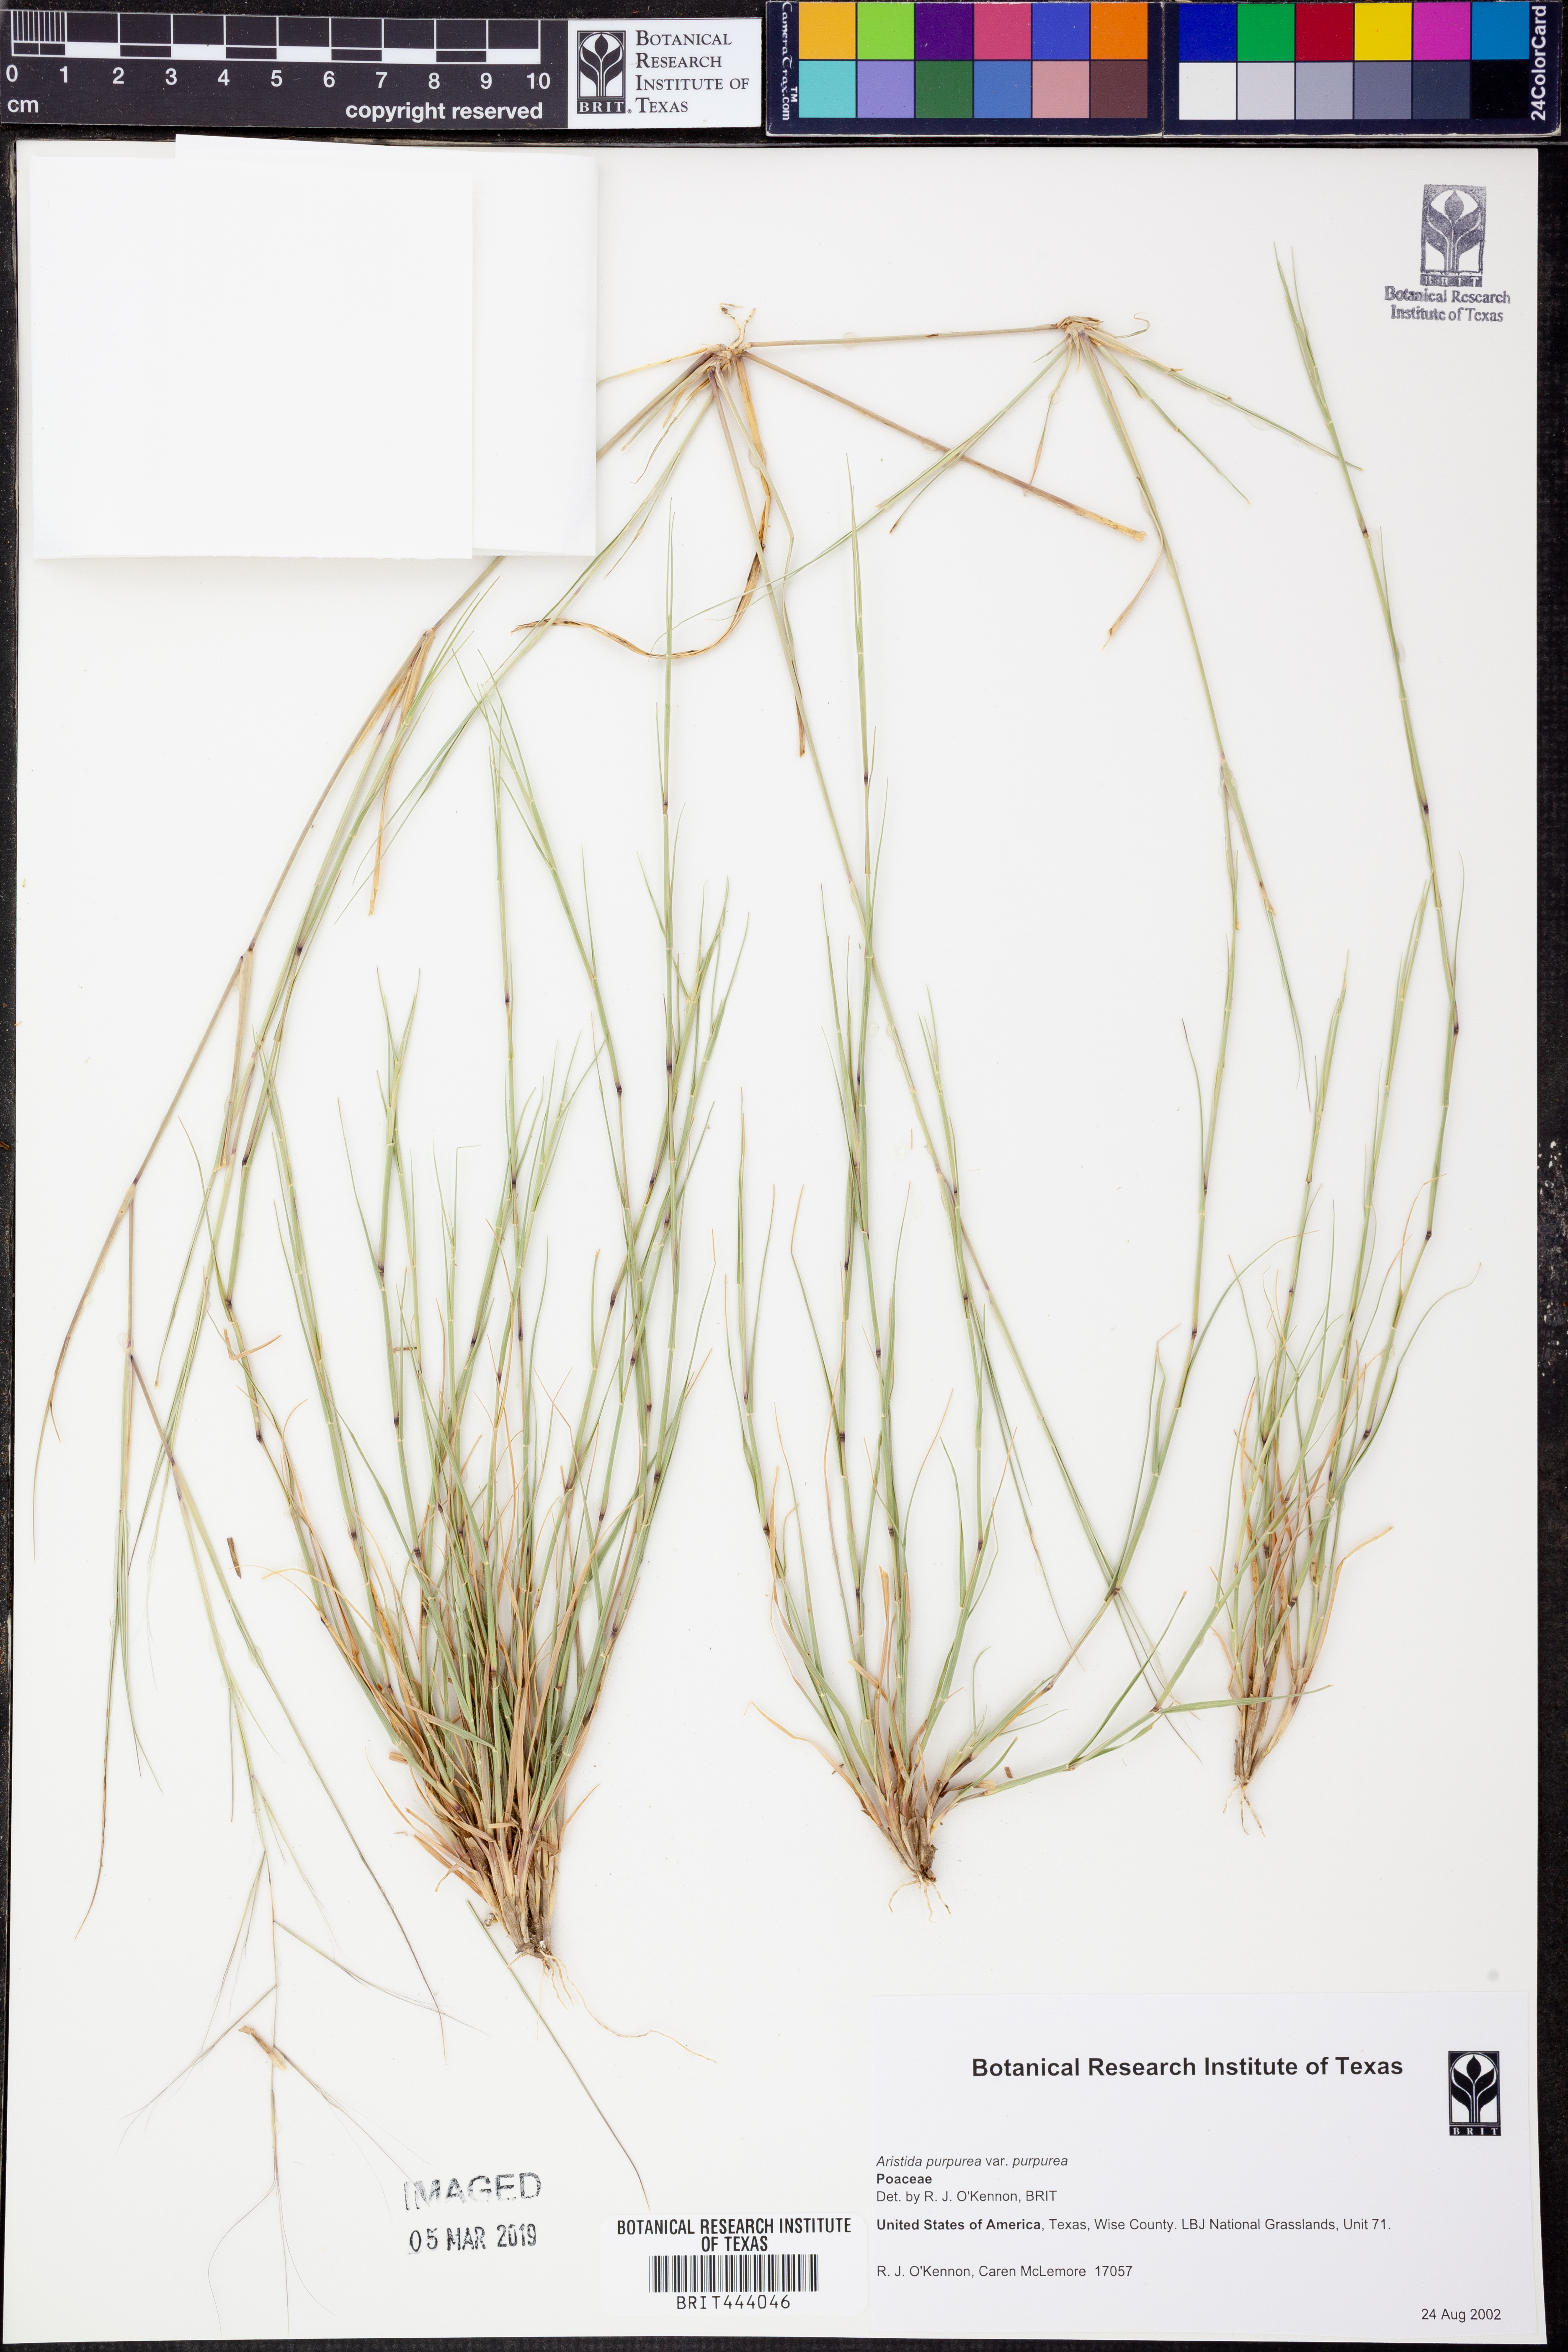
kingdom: Plantae
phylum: Tracheophyta
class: Liliopsida
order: Poales
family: Poaceae
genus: Aristida
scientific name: Aristida purpurea
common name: Purple threeawn
